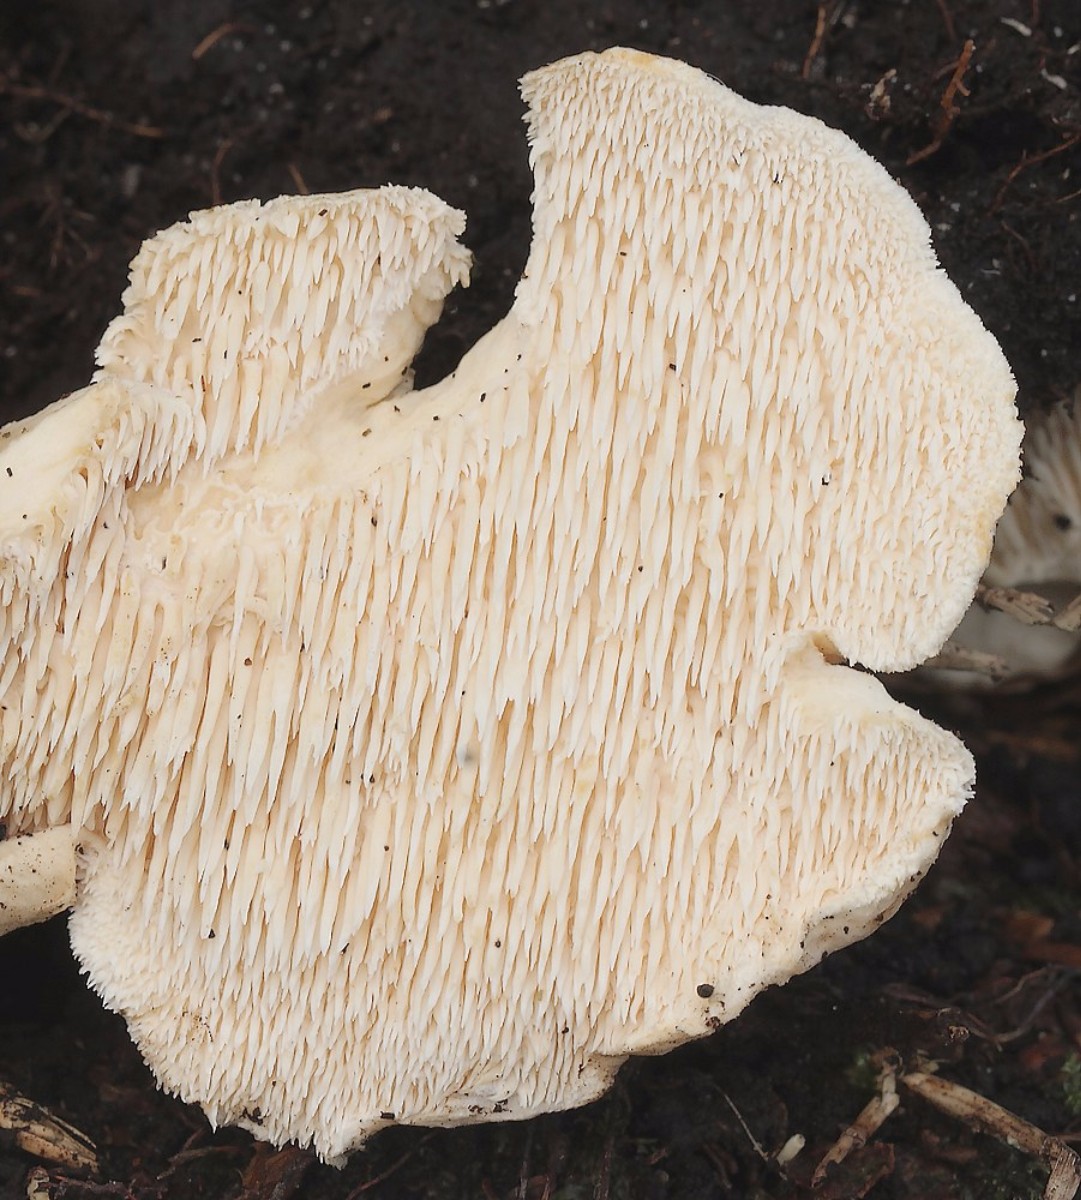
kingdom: Fungi
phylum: Basidiomycota
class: Agaricomycetes
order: Cantharellales
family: Hydnaceae
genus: Hydnum
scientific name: Hydnum repandum
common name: almindelig pigsvamp
